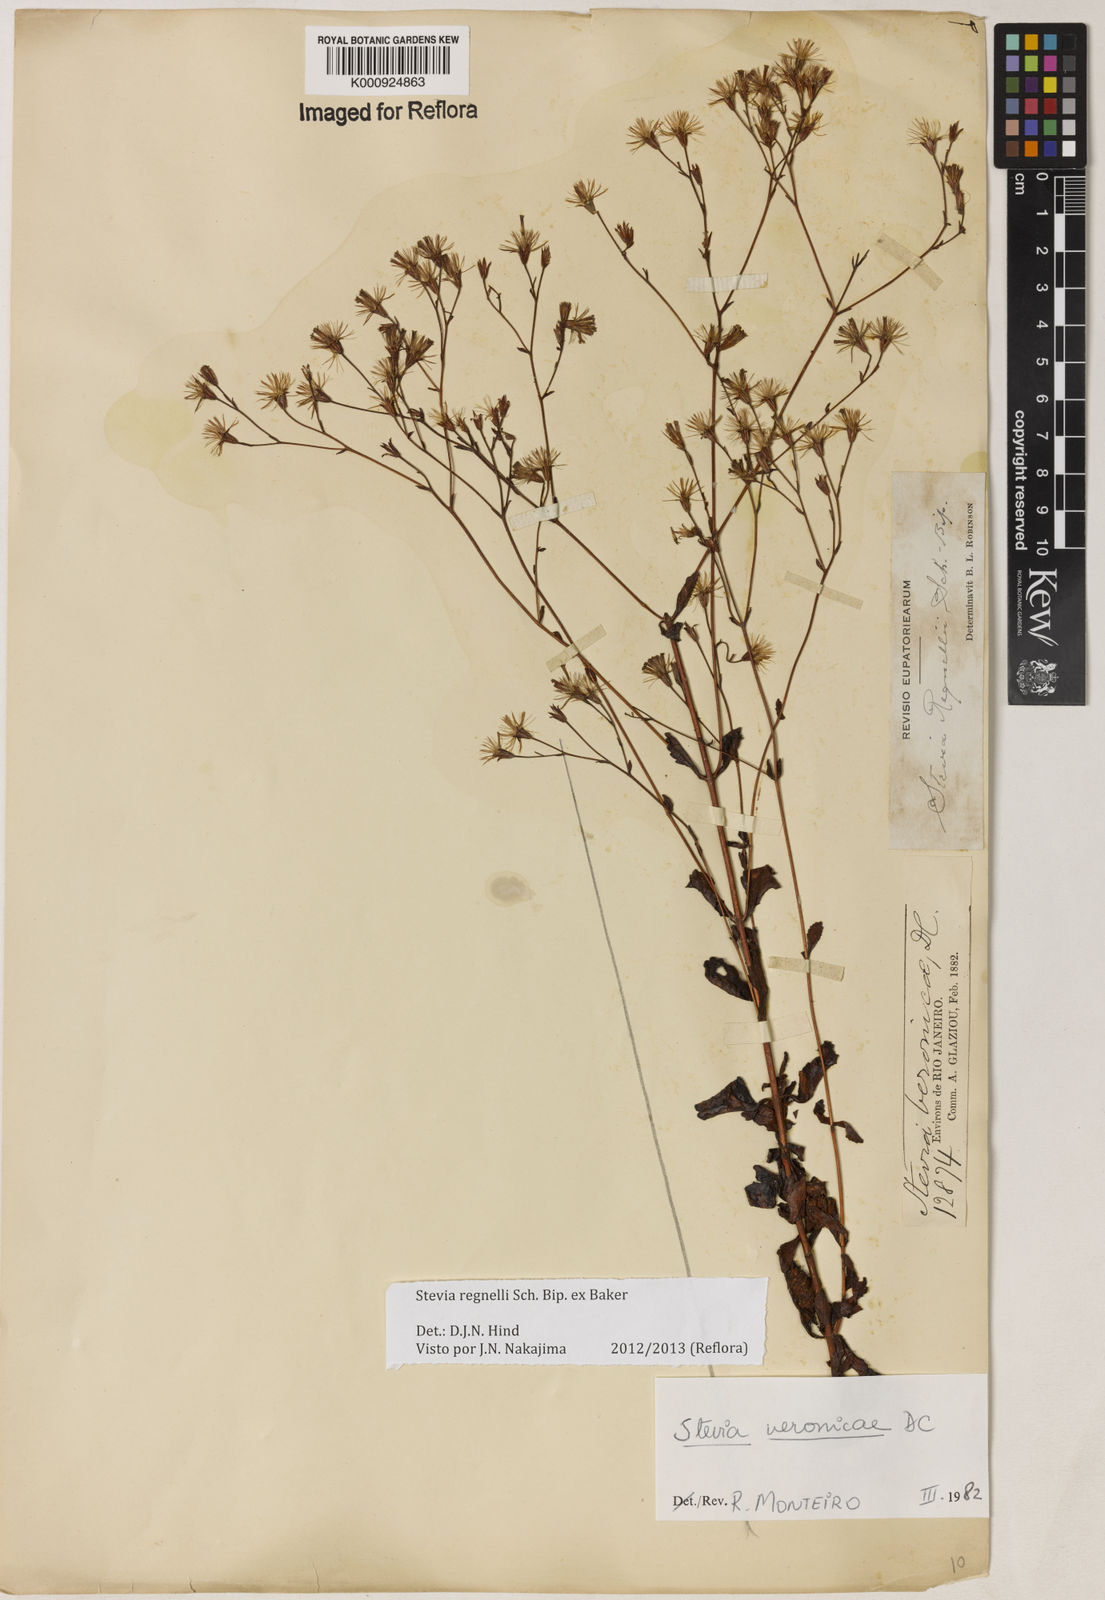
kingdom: Plantae
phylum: Tracheophyta
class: Magnoliopsida
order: Asterales
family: Asteraceae
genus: Stevia
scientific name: Stevia regnellii
